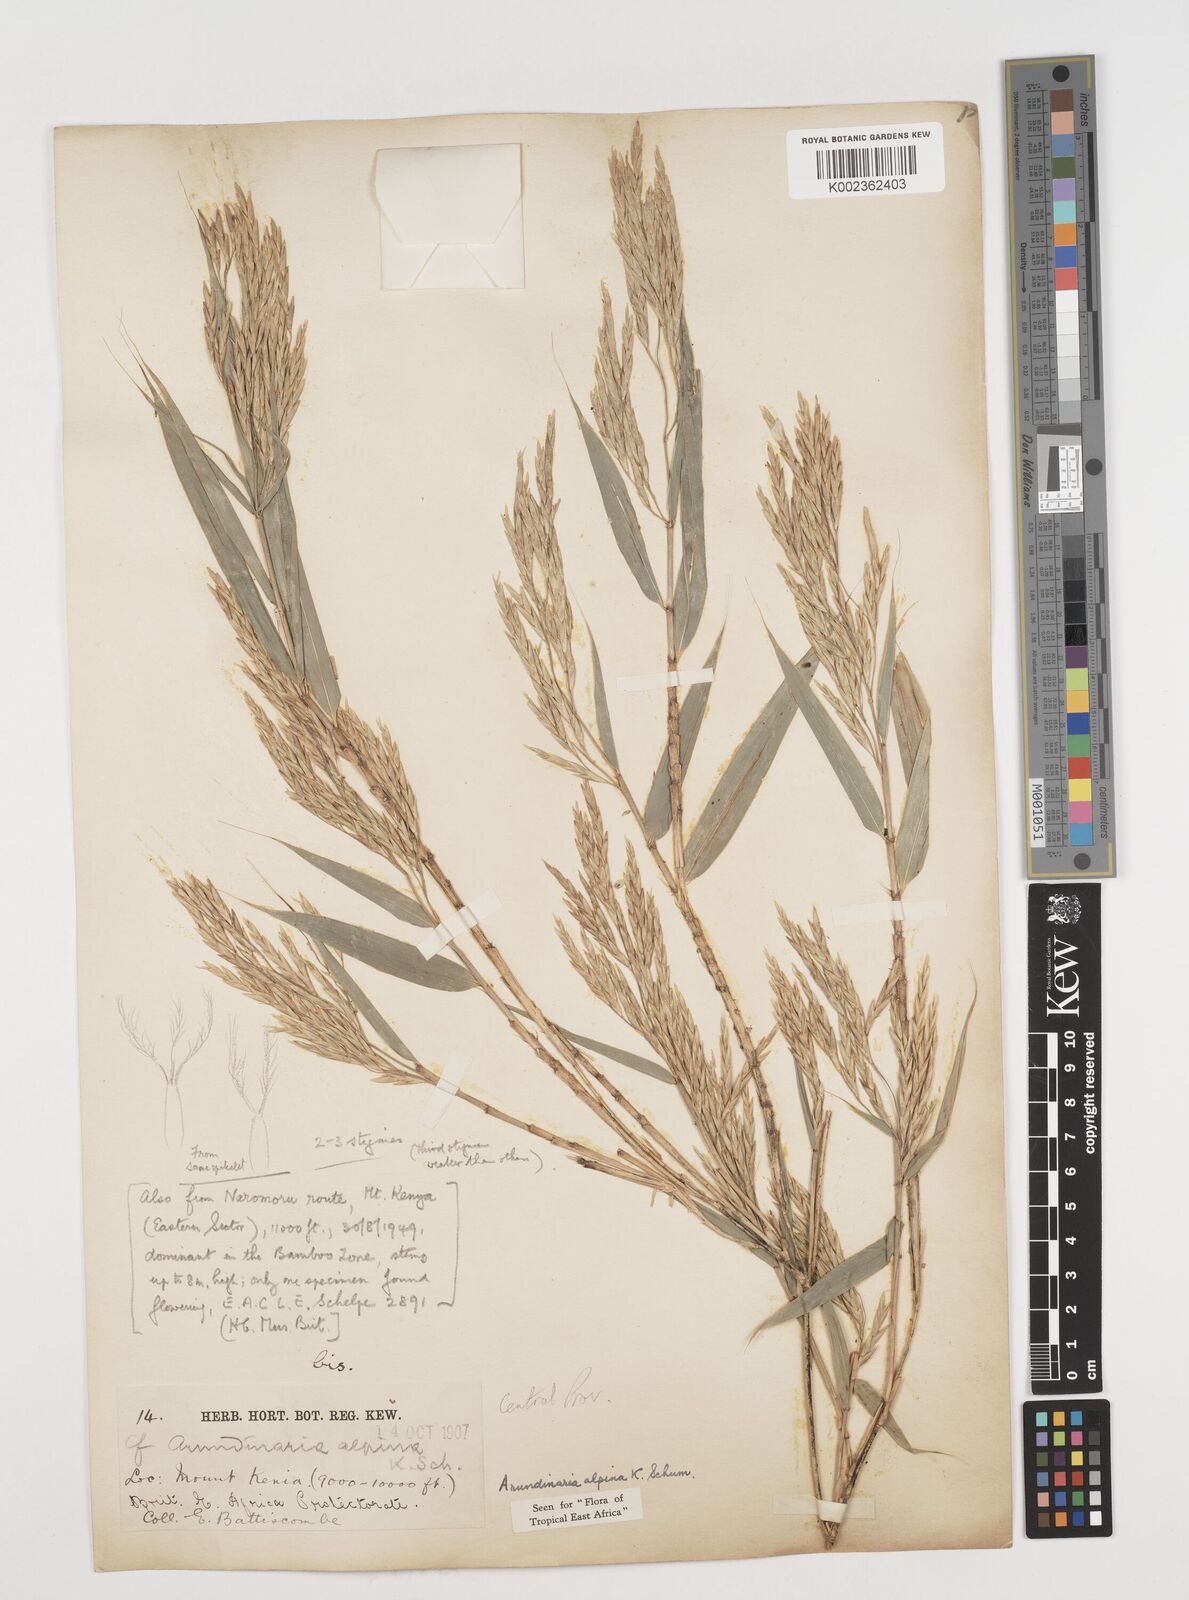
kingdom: Plantae
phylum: Tracheophyta
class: Liliopsida
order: Poales
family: Poaceae
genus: Oldeania
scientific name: Oldeania alpina
